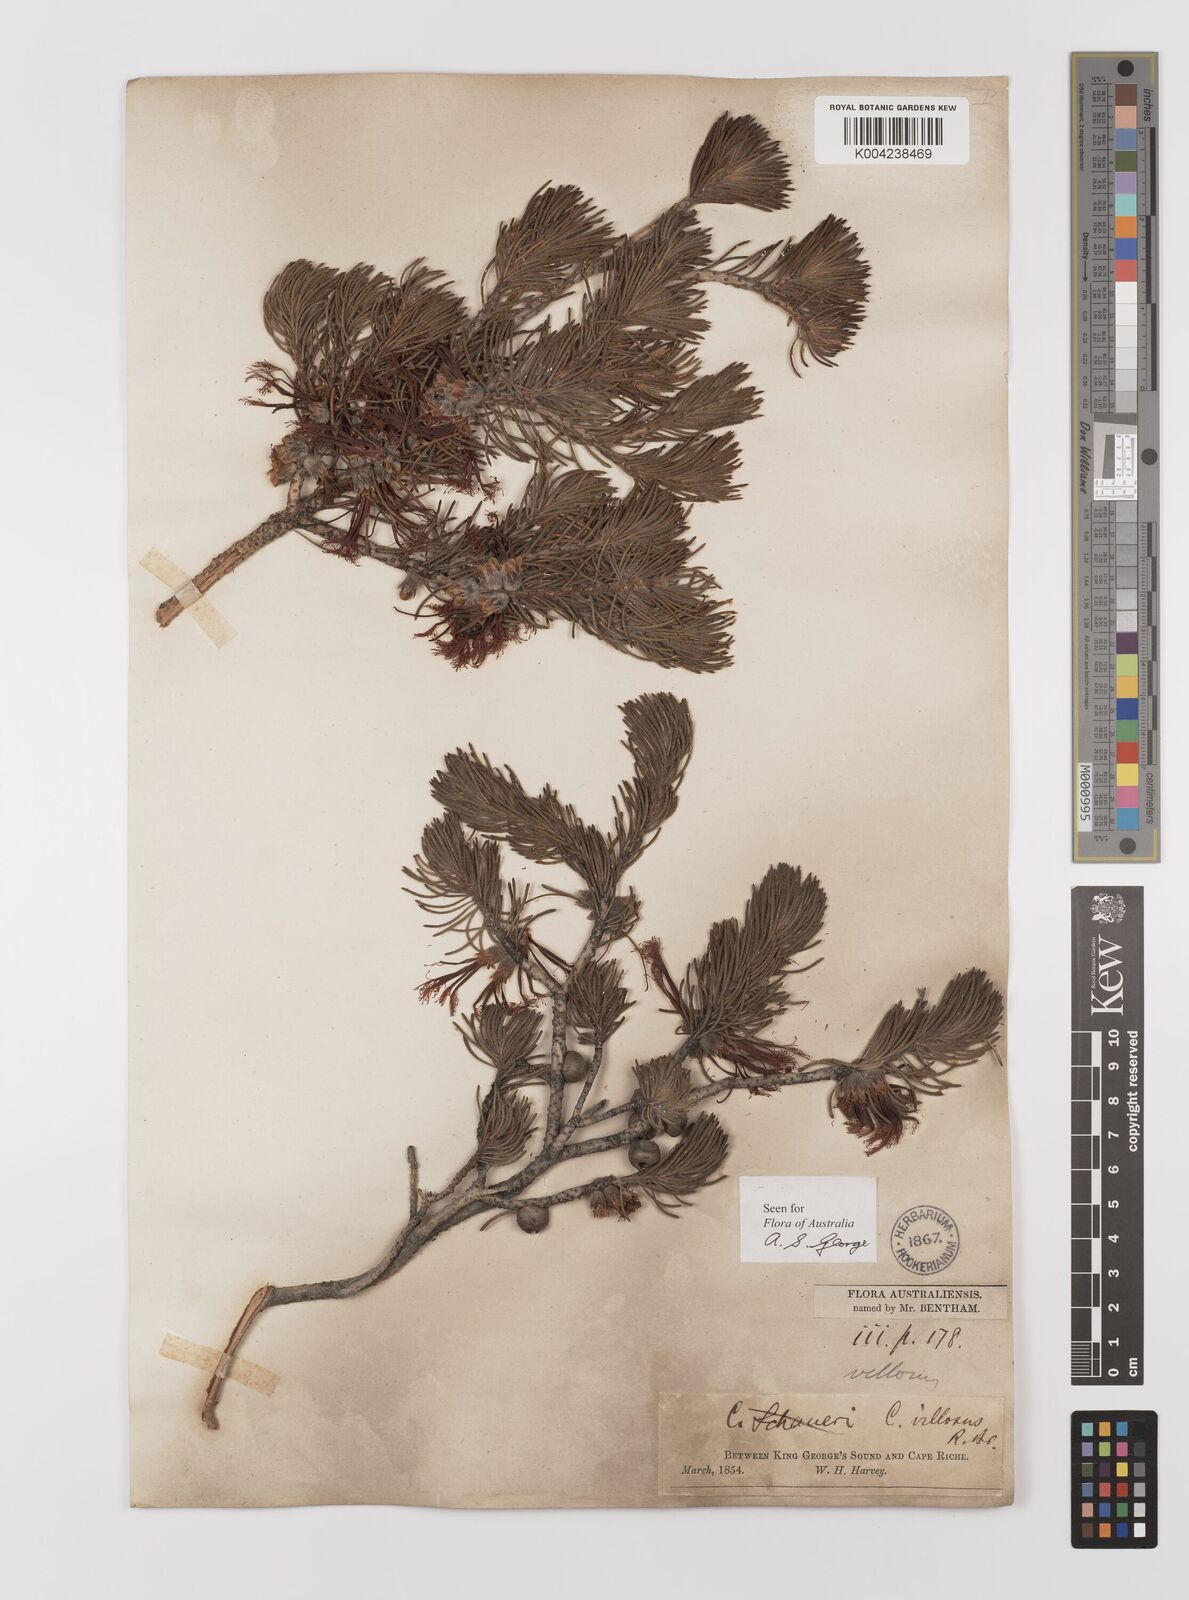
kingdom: Plantae
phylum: Tracheophyta
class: Magnoliopsida
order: Myrtales
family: Myrtaceae
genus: Melaleuca
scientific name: Melaleuca hislopii
